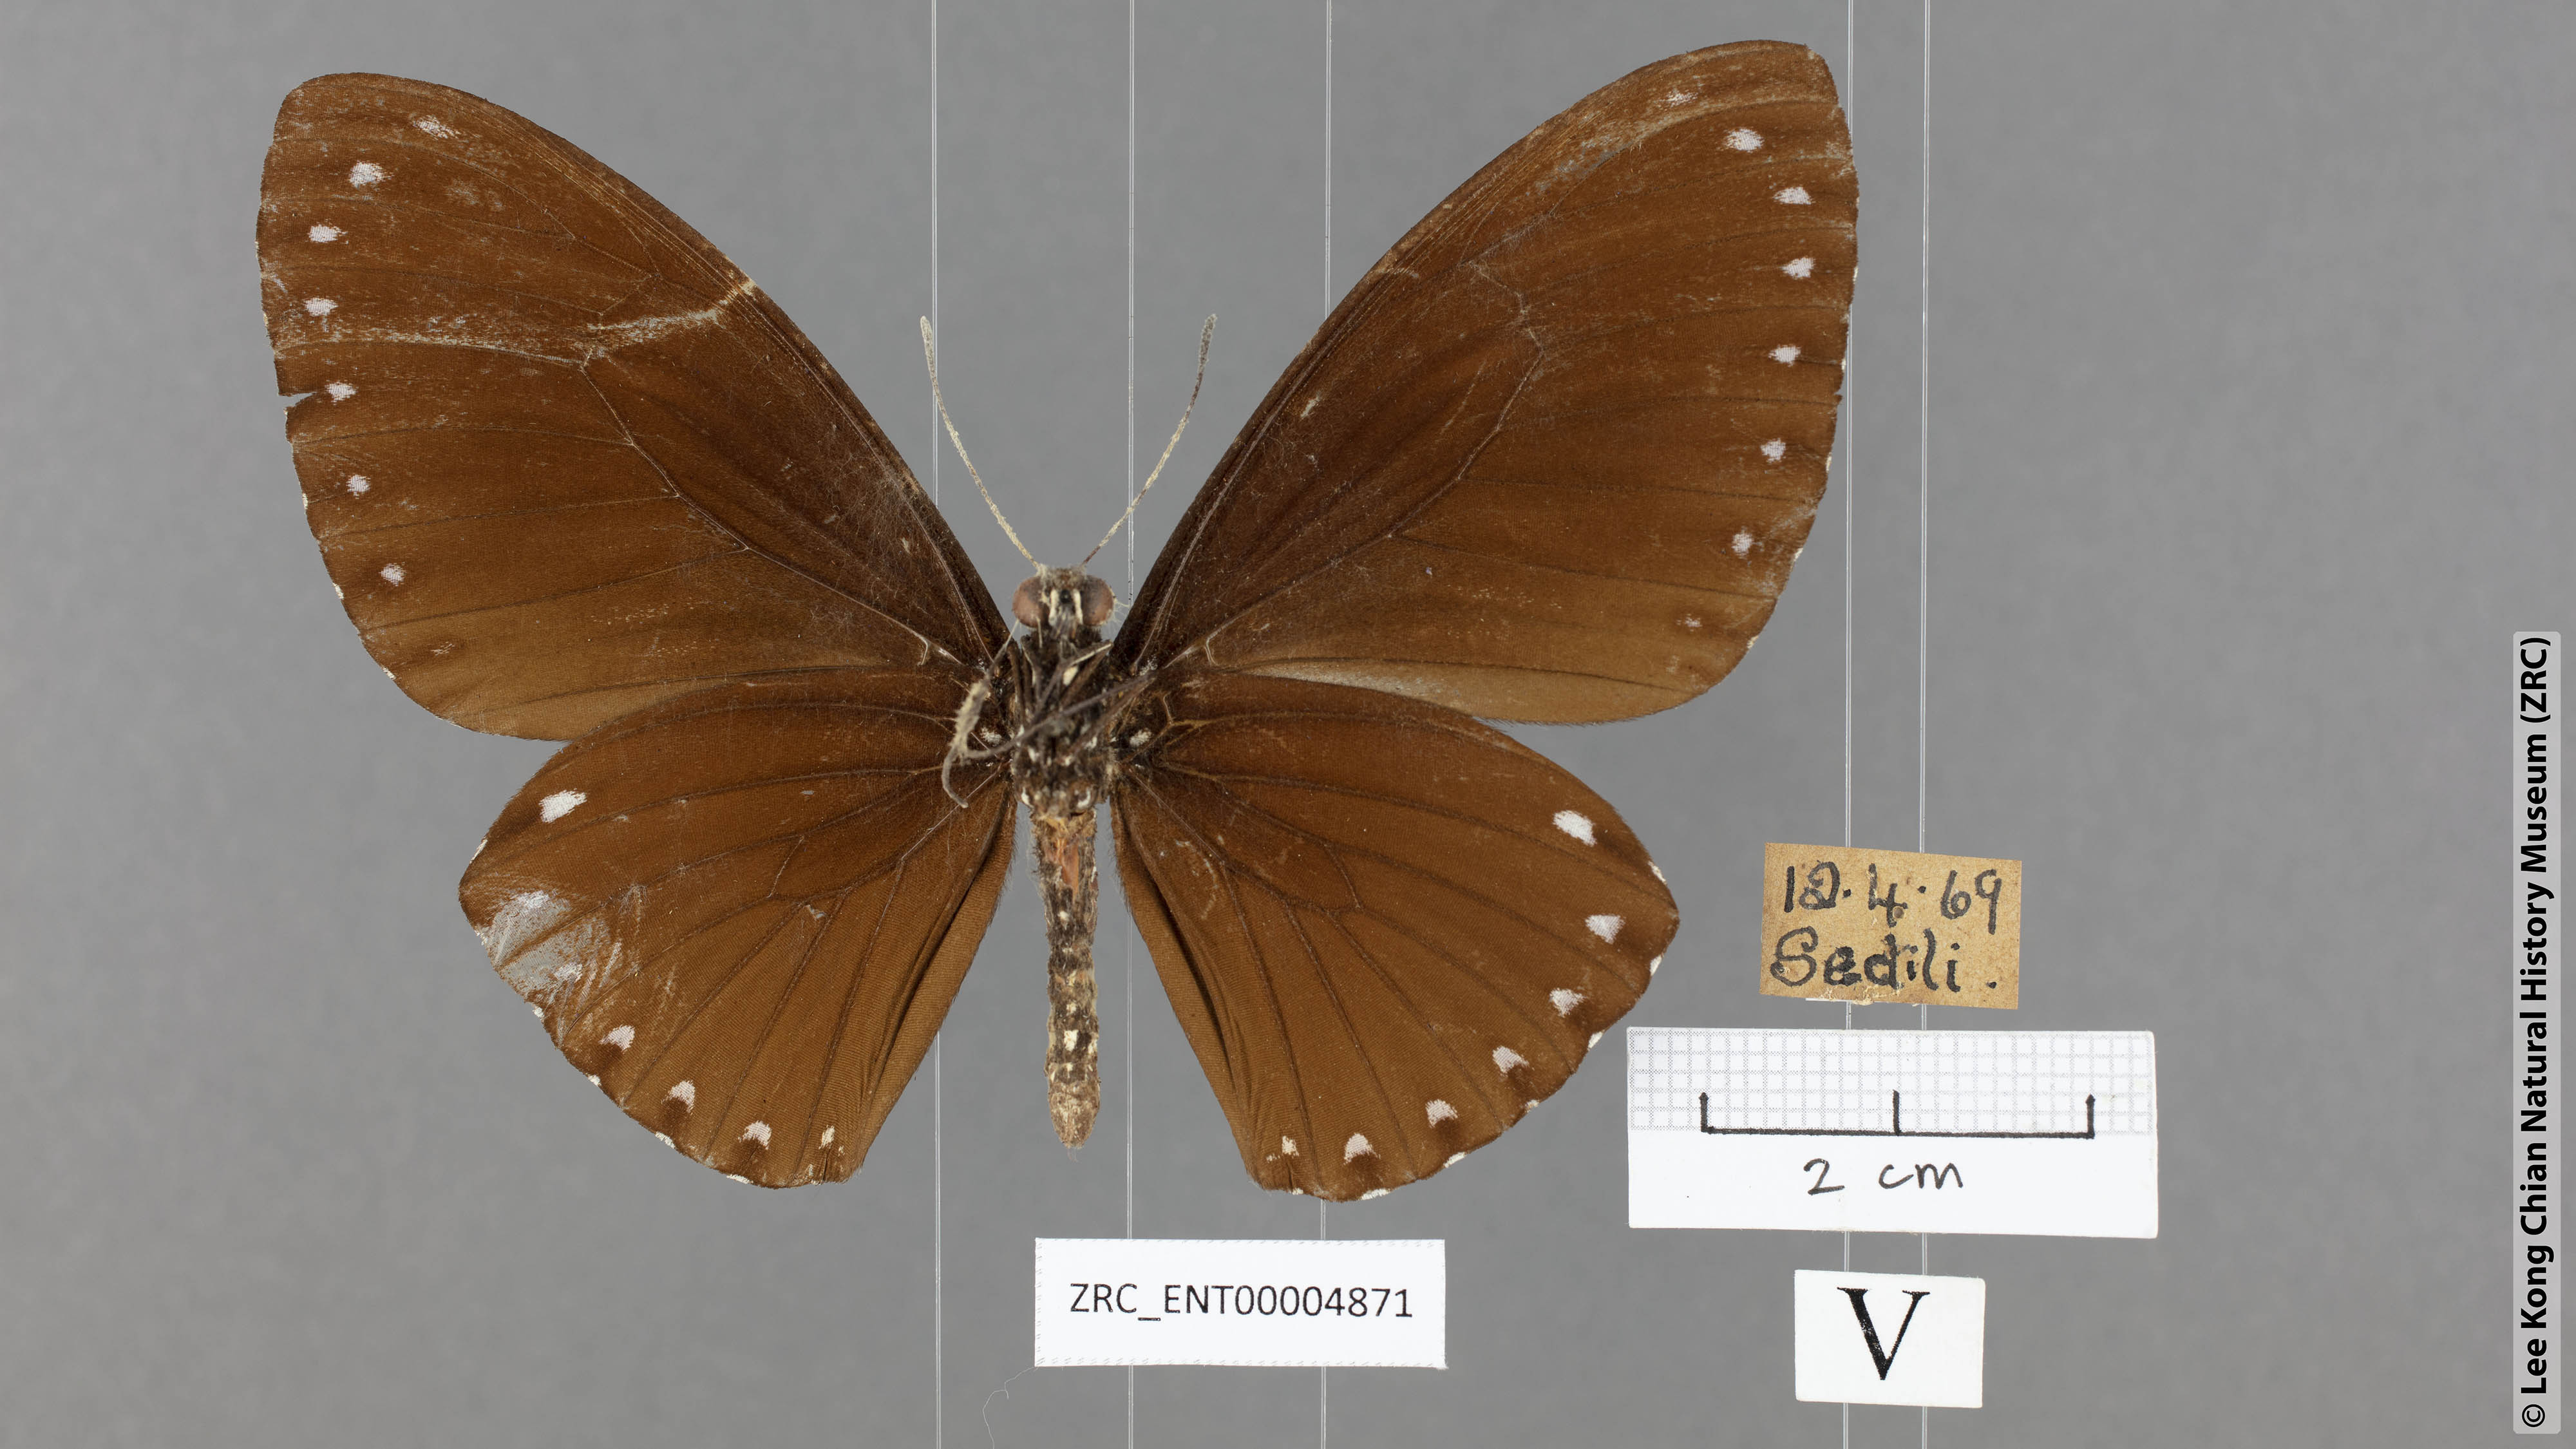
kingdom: Animalia
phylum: Arthropoda
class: Insecta
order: Lepidoptera
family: Papilionidae
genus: Chilasa
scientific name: Chilasa paradoxa
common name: Great mime
